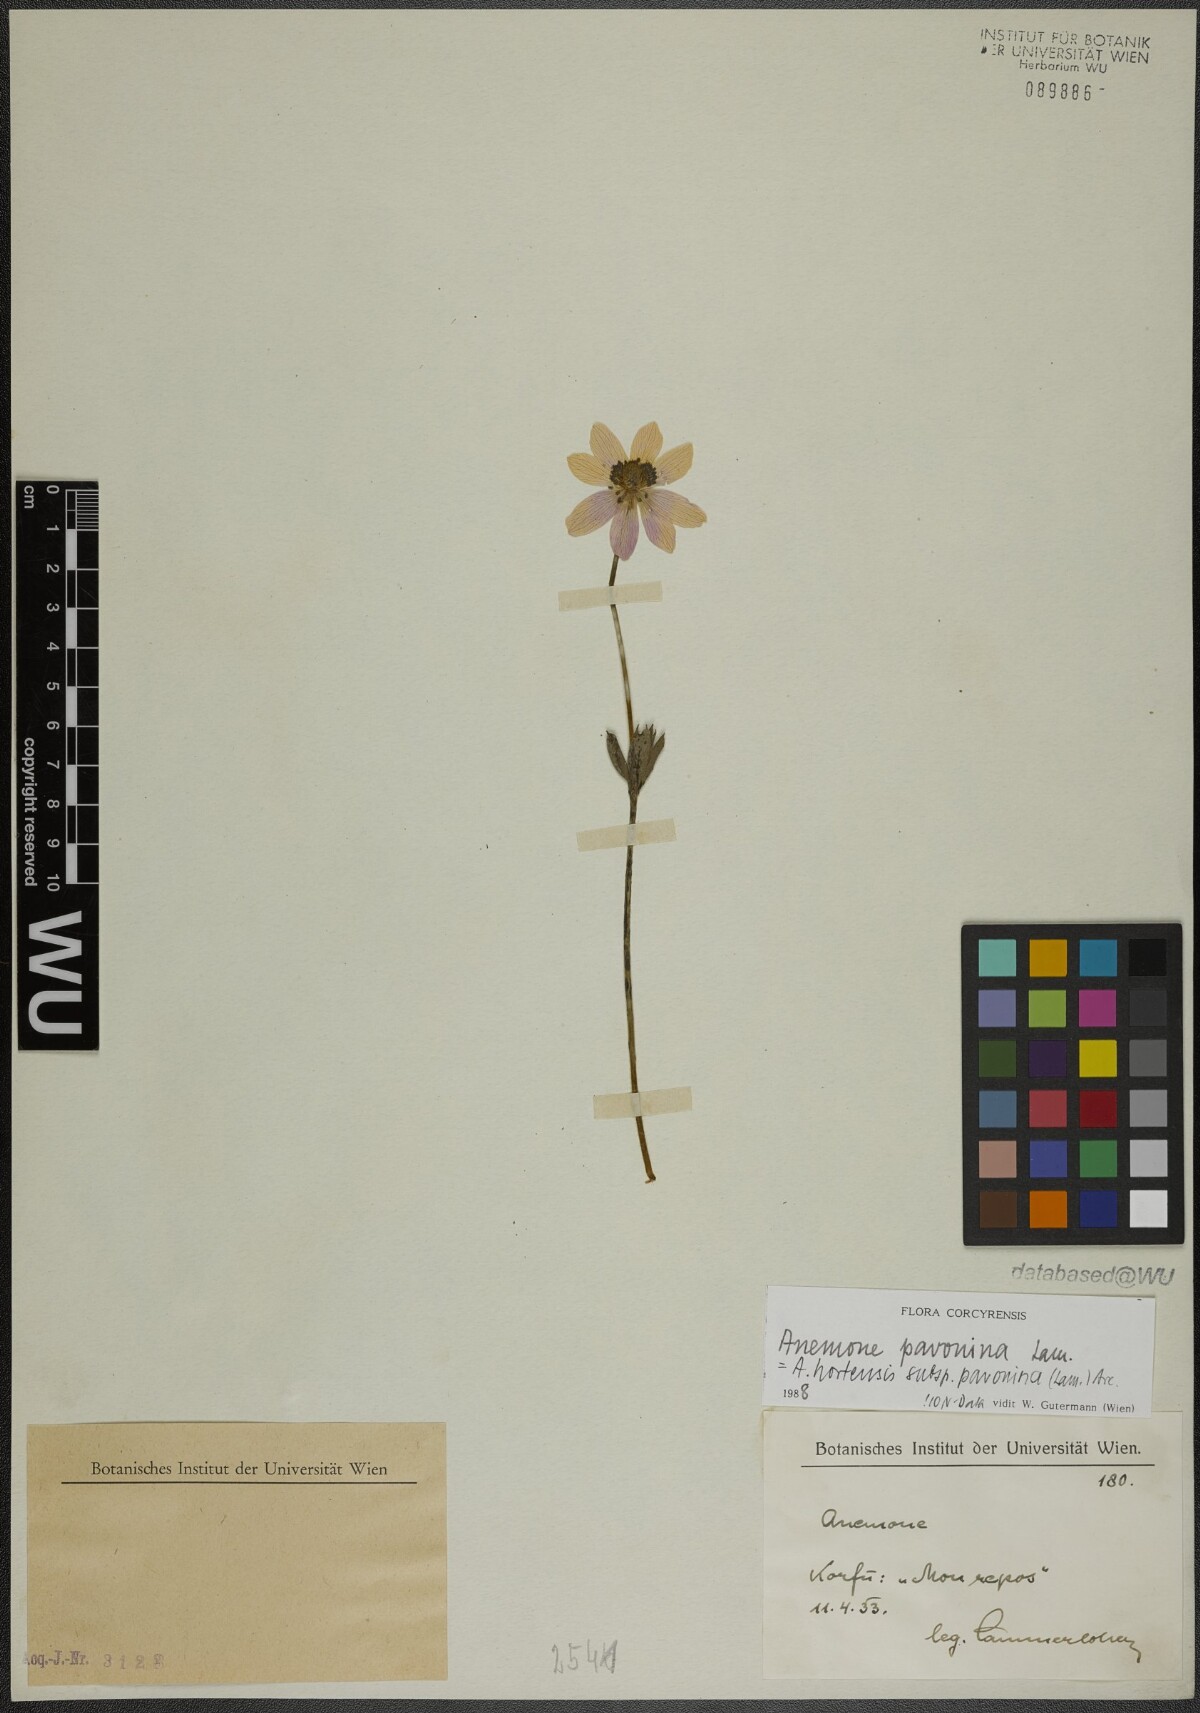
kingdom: Plantae
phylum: Tracheophyta
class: Magnoliopsida
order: Ranunculales
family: Ranunculaceae
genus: Anemone
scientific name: Anemone pavonina
